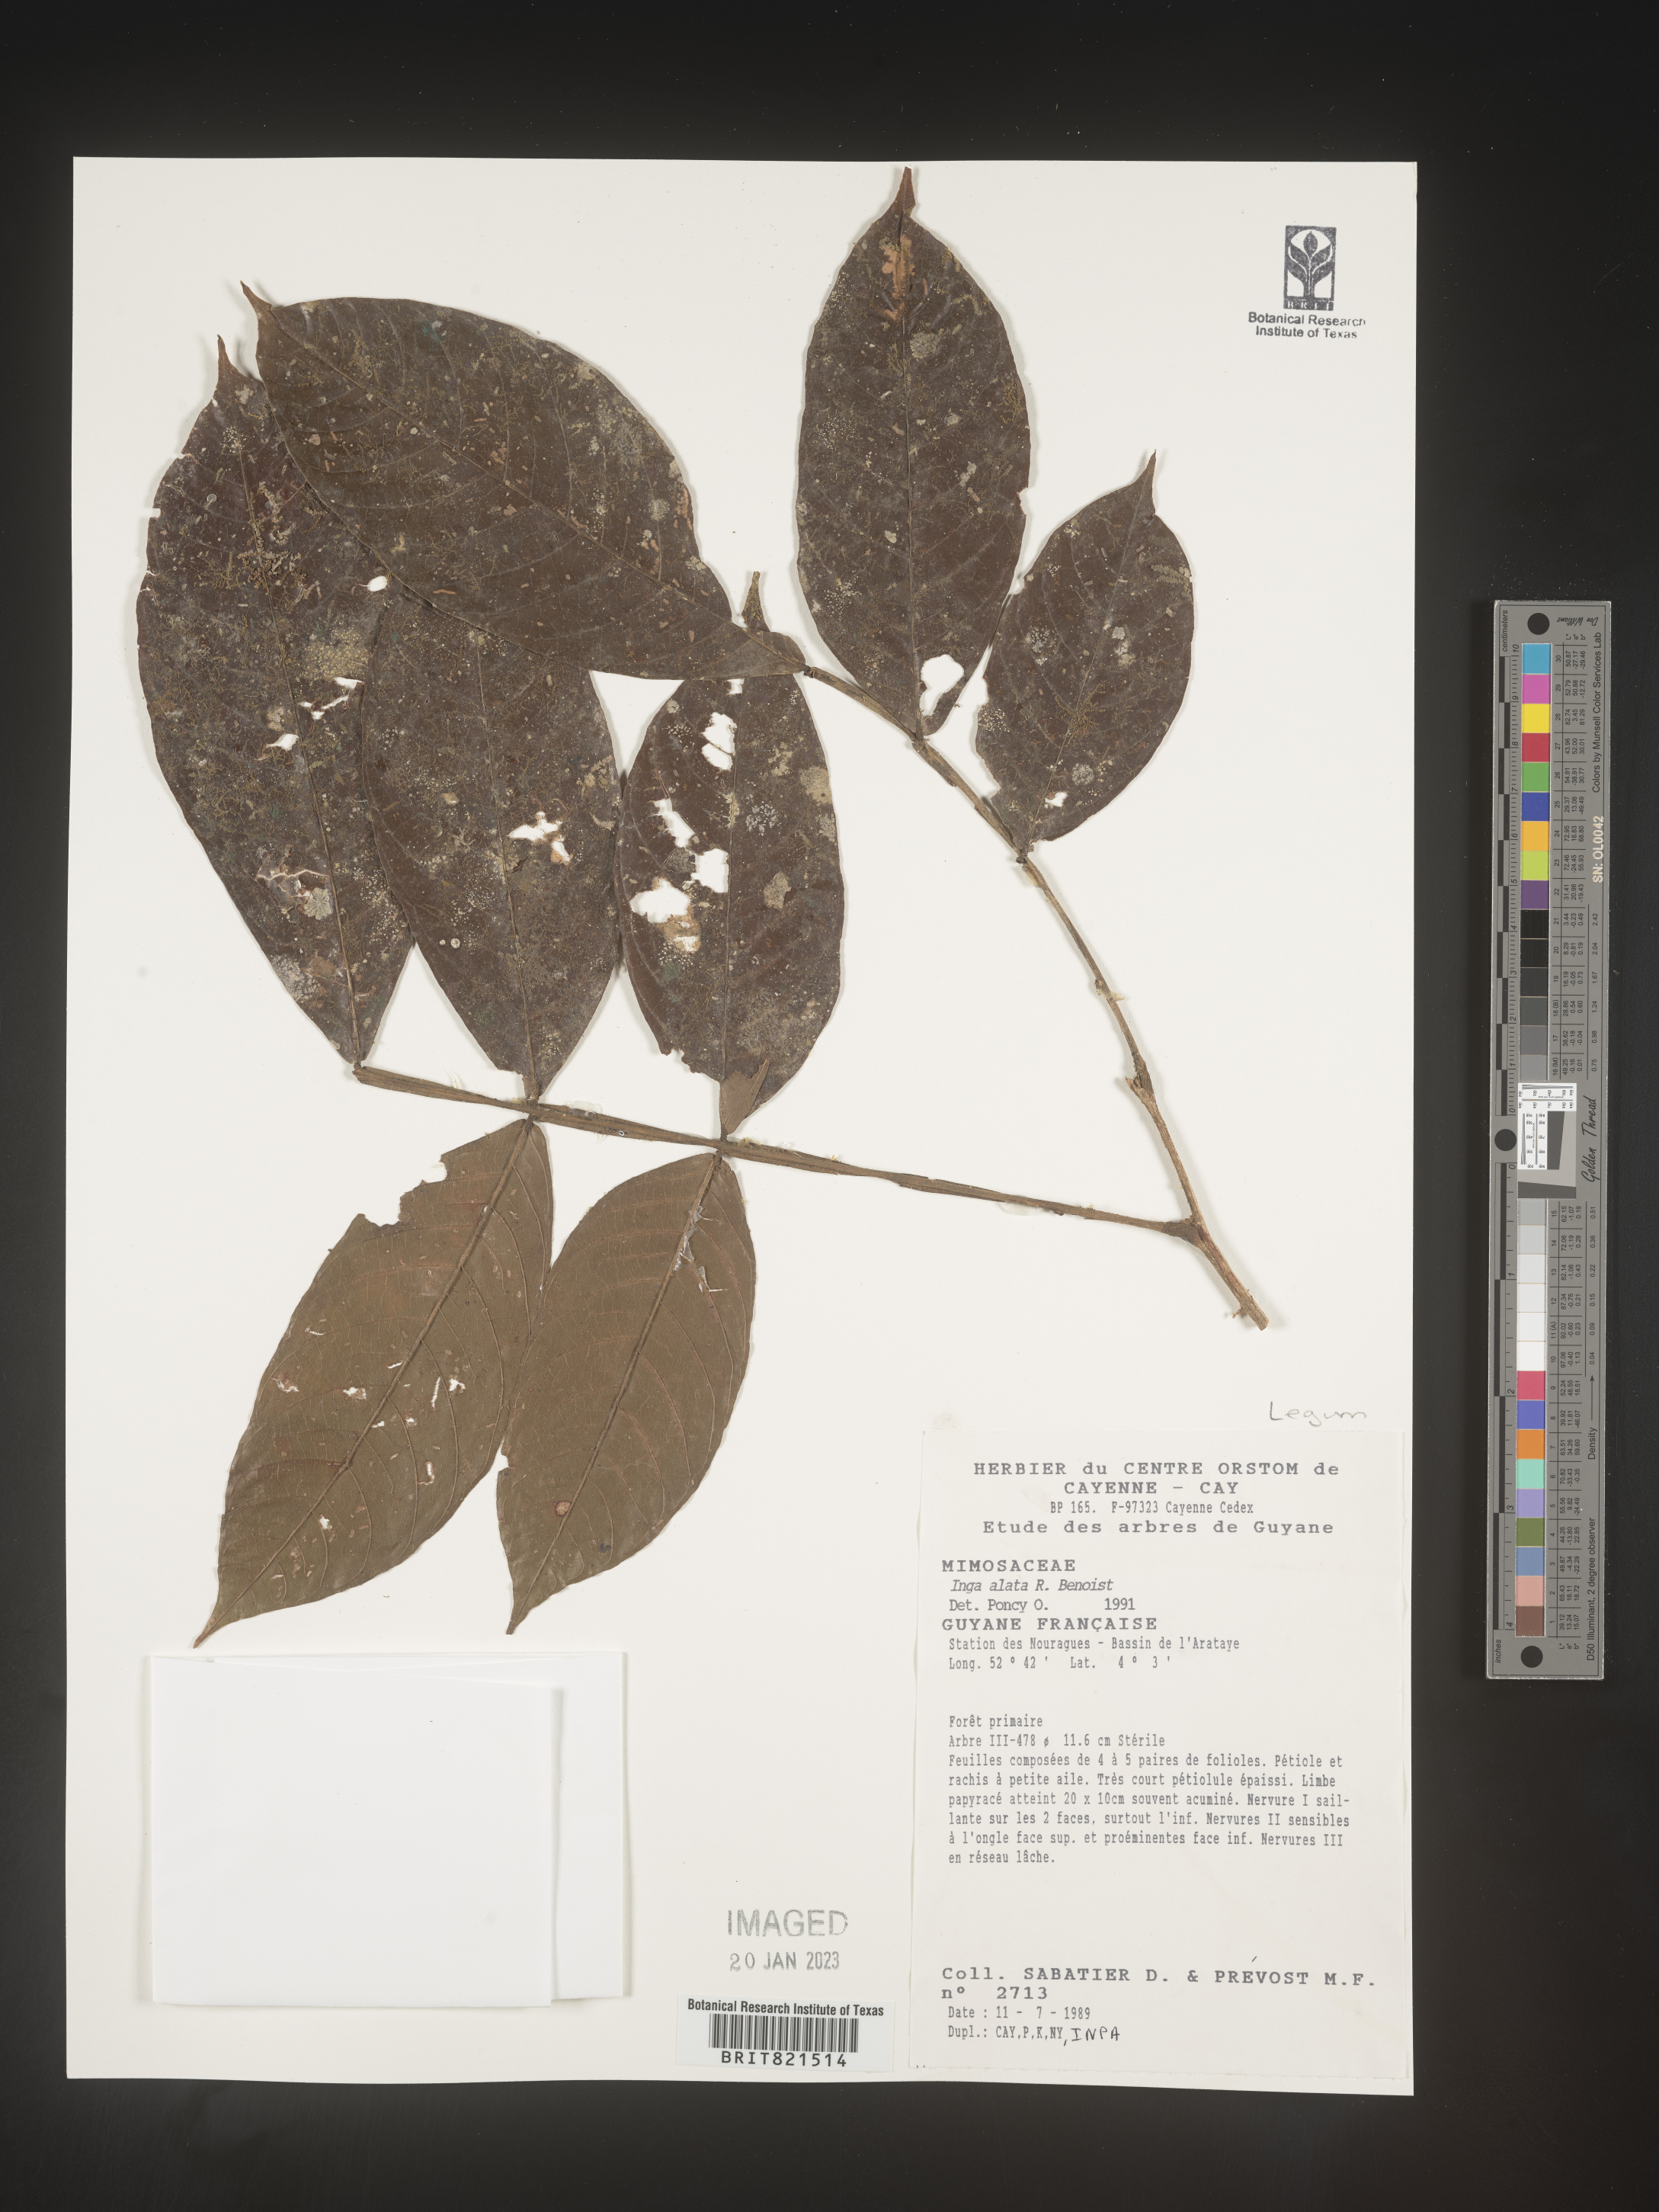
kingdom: Plantae
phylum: Tracheophyta
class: Magnoliopsida
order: Fabales
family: Fabaceae
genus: Inga
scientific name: Inga
